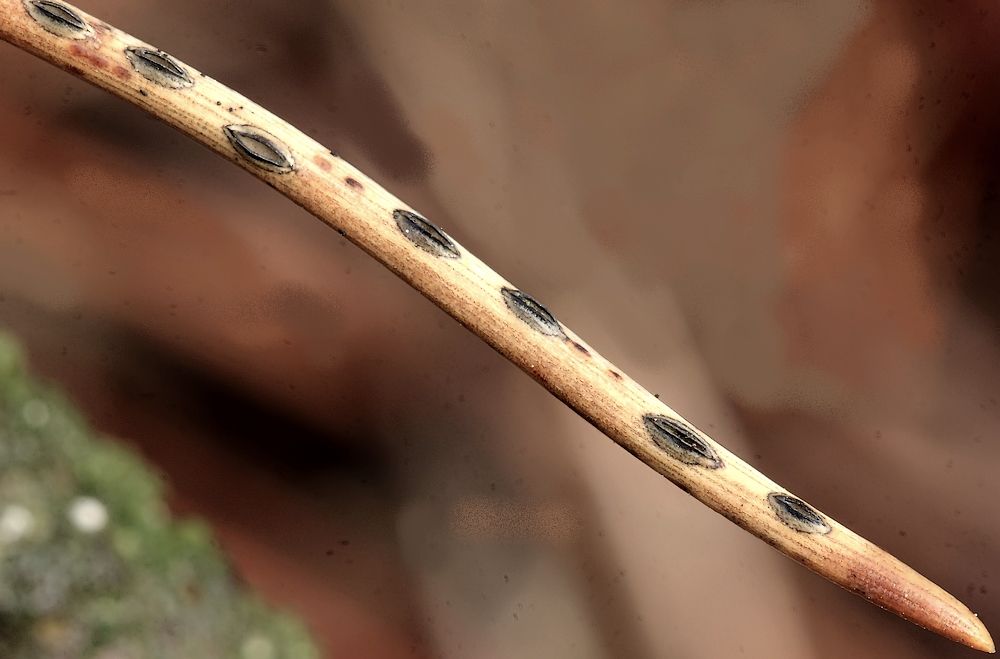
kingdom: Fungi
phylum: Ascomycota
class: Leotiomycetes
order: Rhytismatales
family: Rhytismataceae
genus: Lophodermium
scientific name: Lophodermium
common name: fureplet
